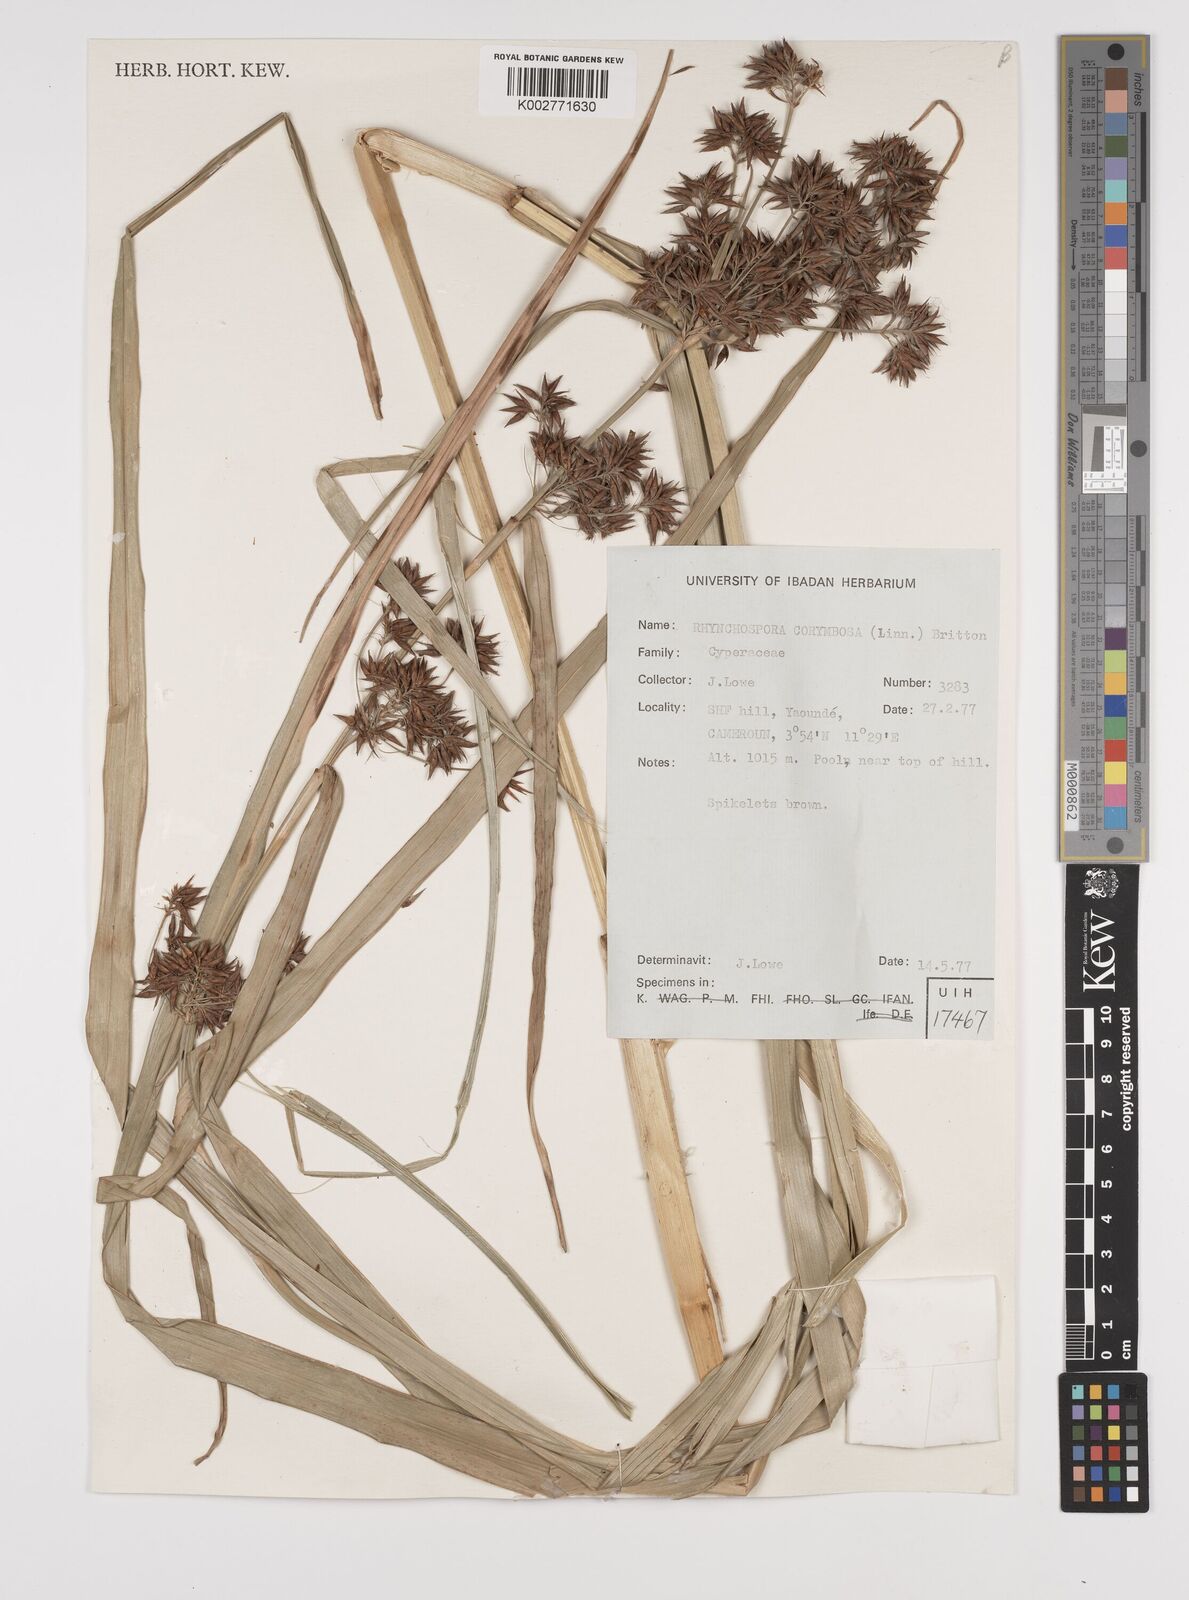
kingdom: Plantae
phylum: Tracheophyta
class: Liliopsida
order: Poales
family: Cyperaceae
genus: Rhynchospora
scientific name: Rhynchospora corymbosa
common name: Golden beak sedge
